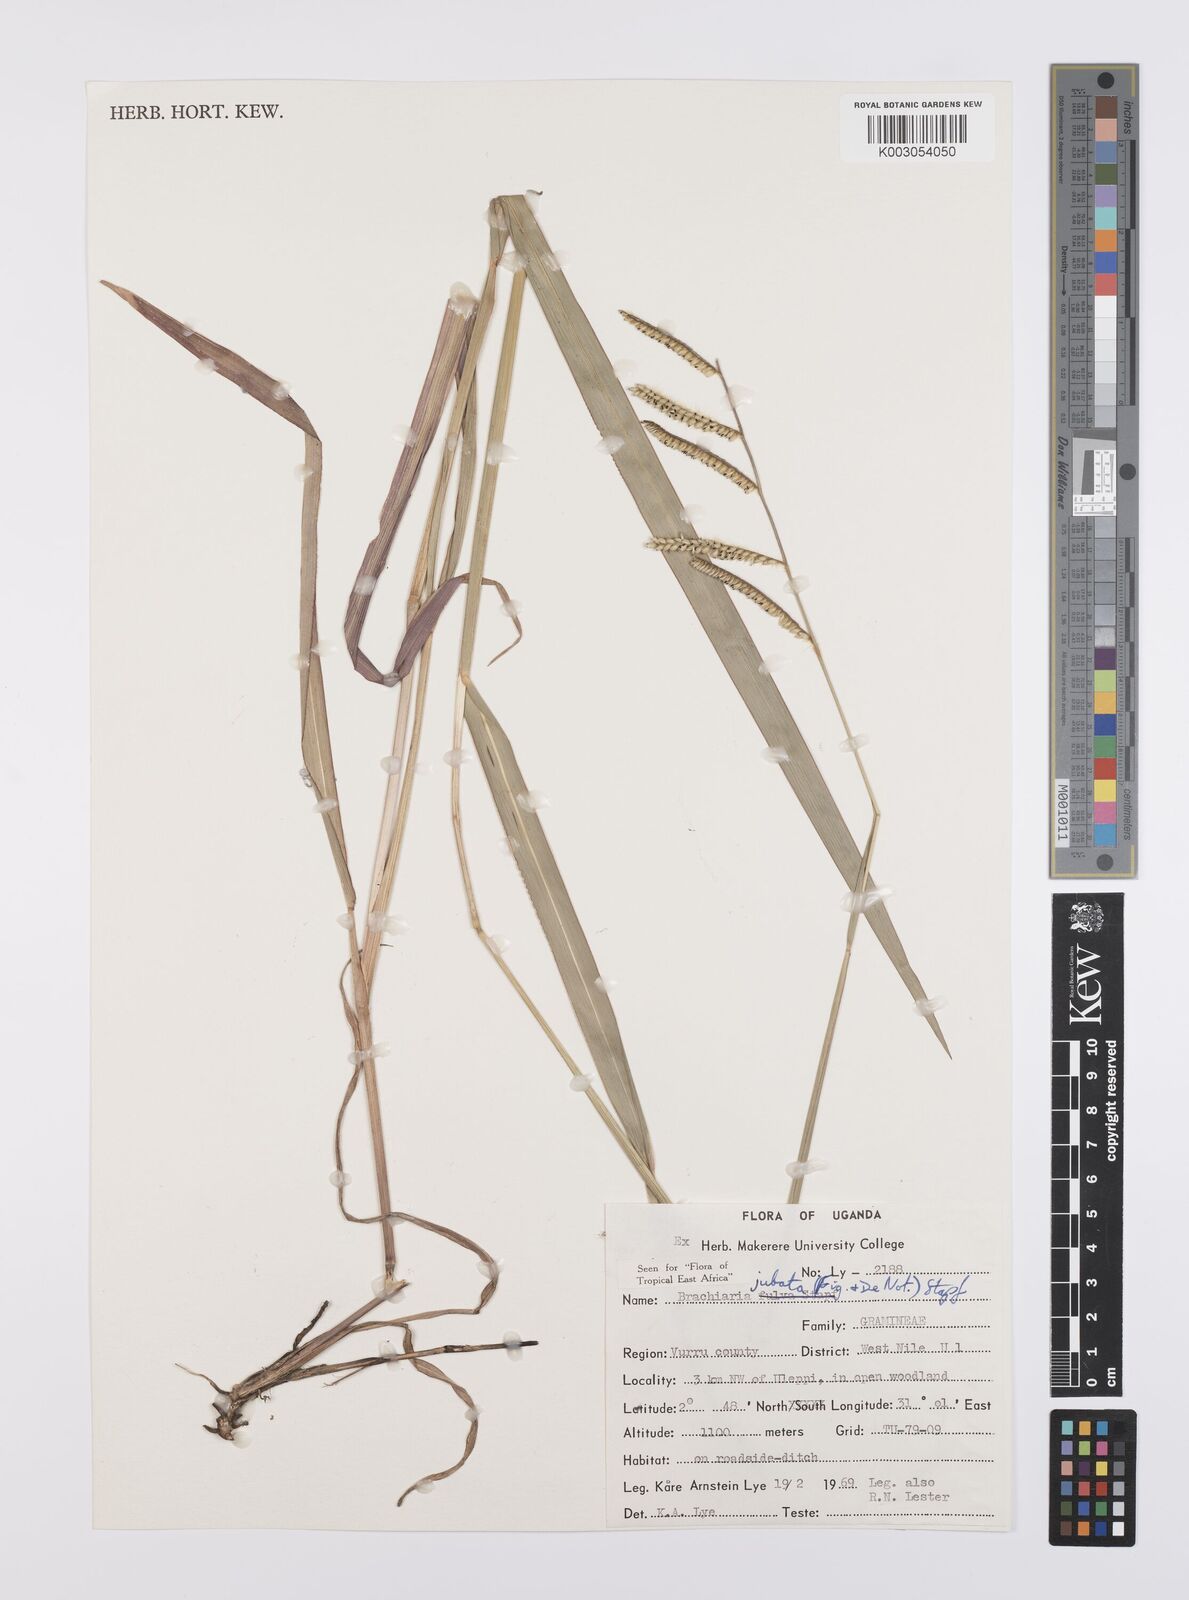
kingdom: Plantae
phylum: Tracheophyta
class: Liliopsida
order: Poales
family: Poaceae
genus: Urochloa
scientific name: Urochloa jubata
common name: Buffalograss
